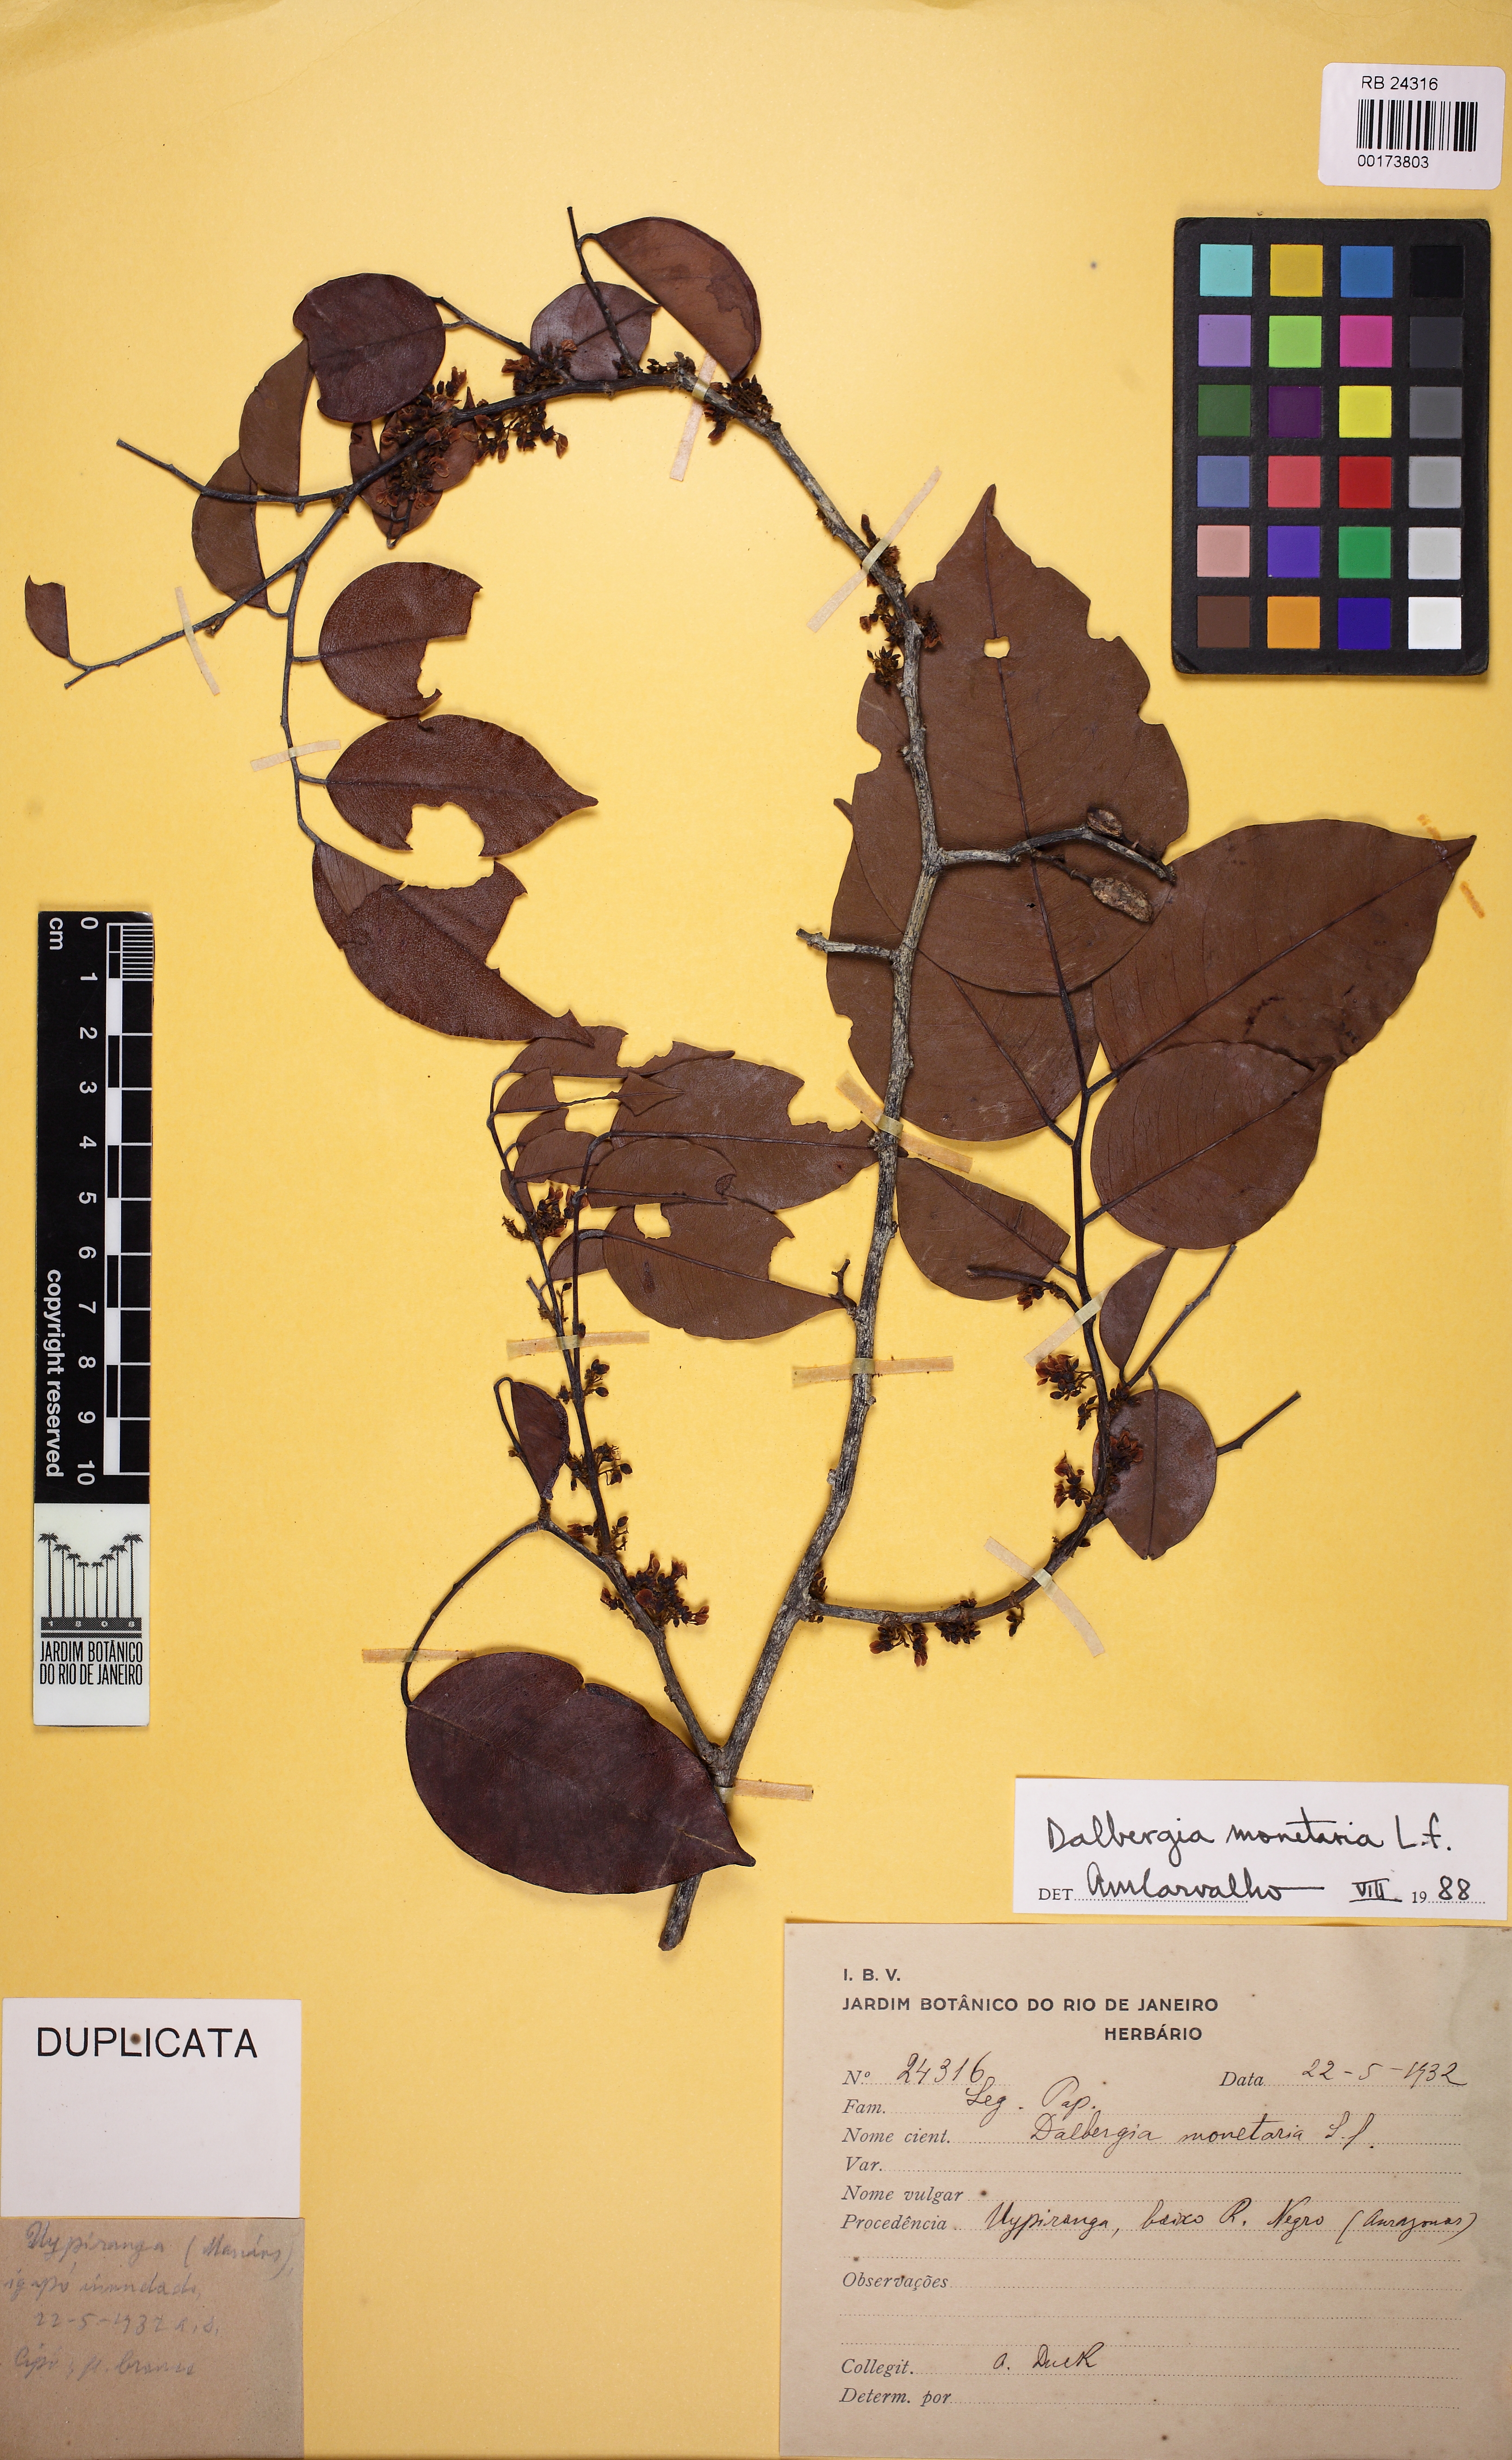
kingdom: Plantae
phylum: Tracheophyta
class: Magnoliopsida
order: Fabales
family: Fabaceae
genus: Dalbergia
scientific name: Dalbergia ovalis
